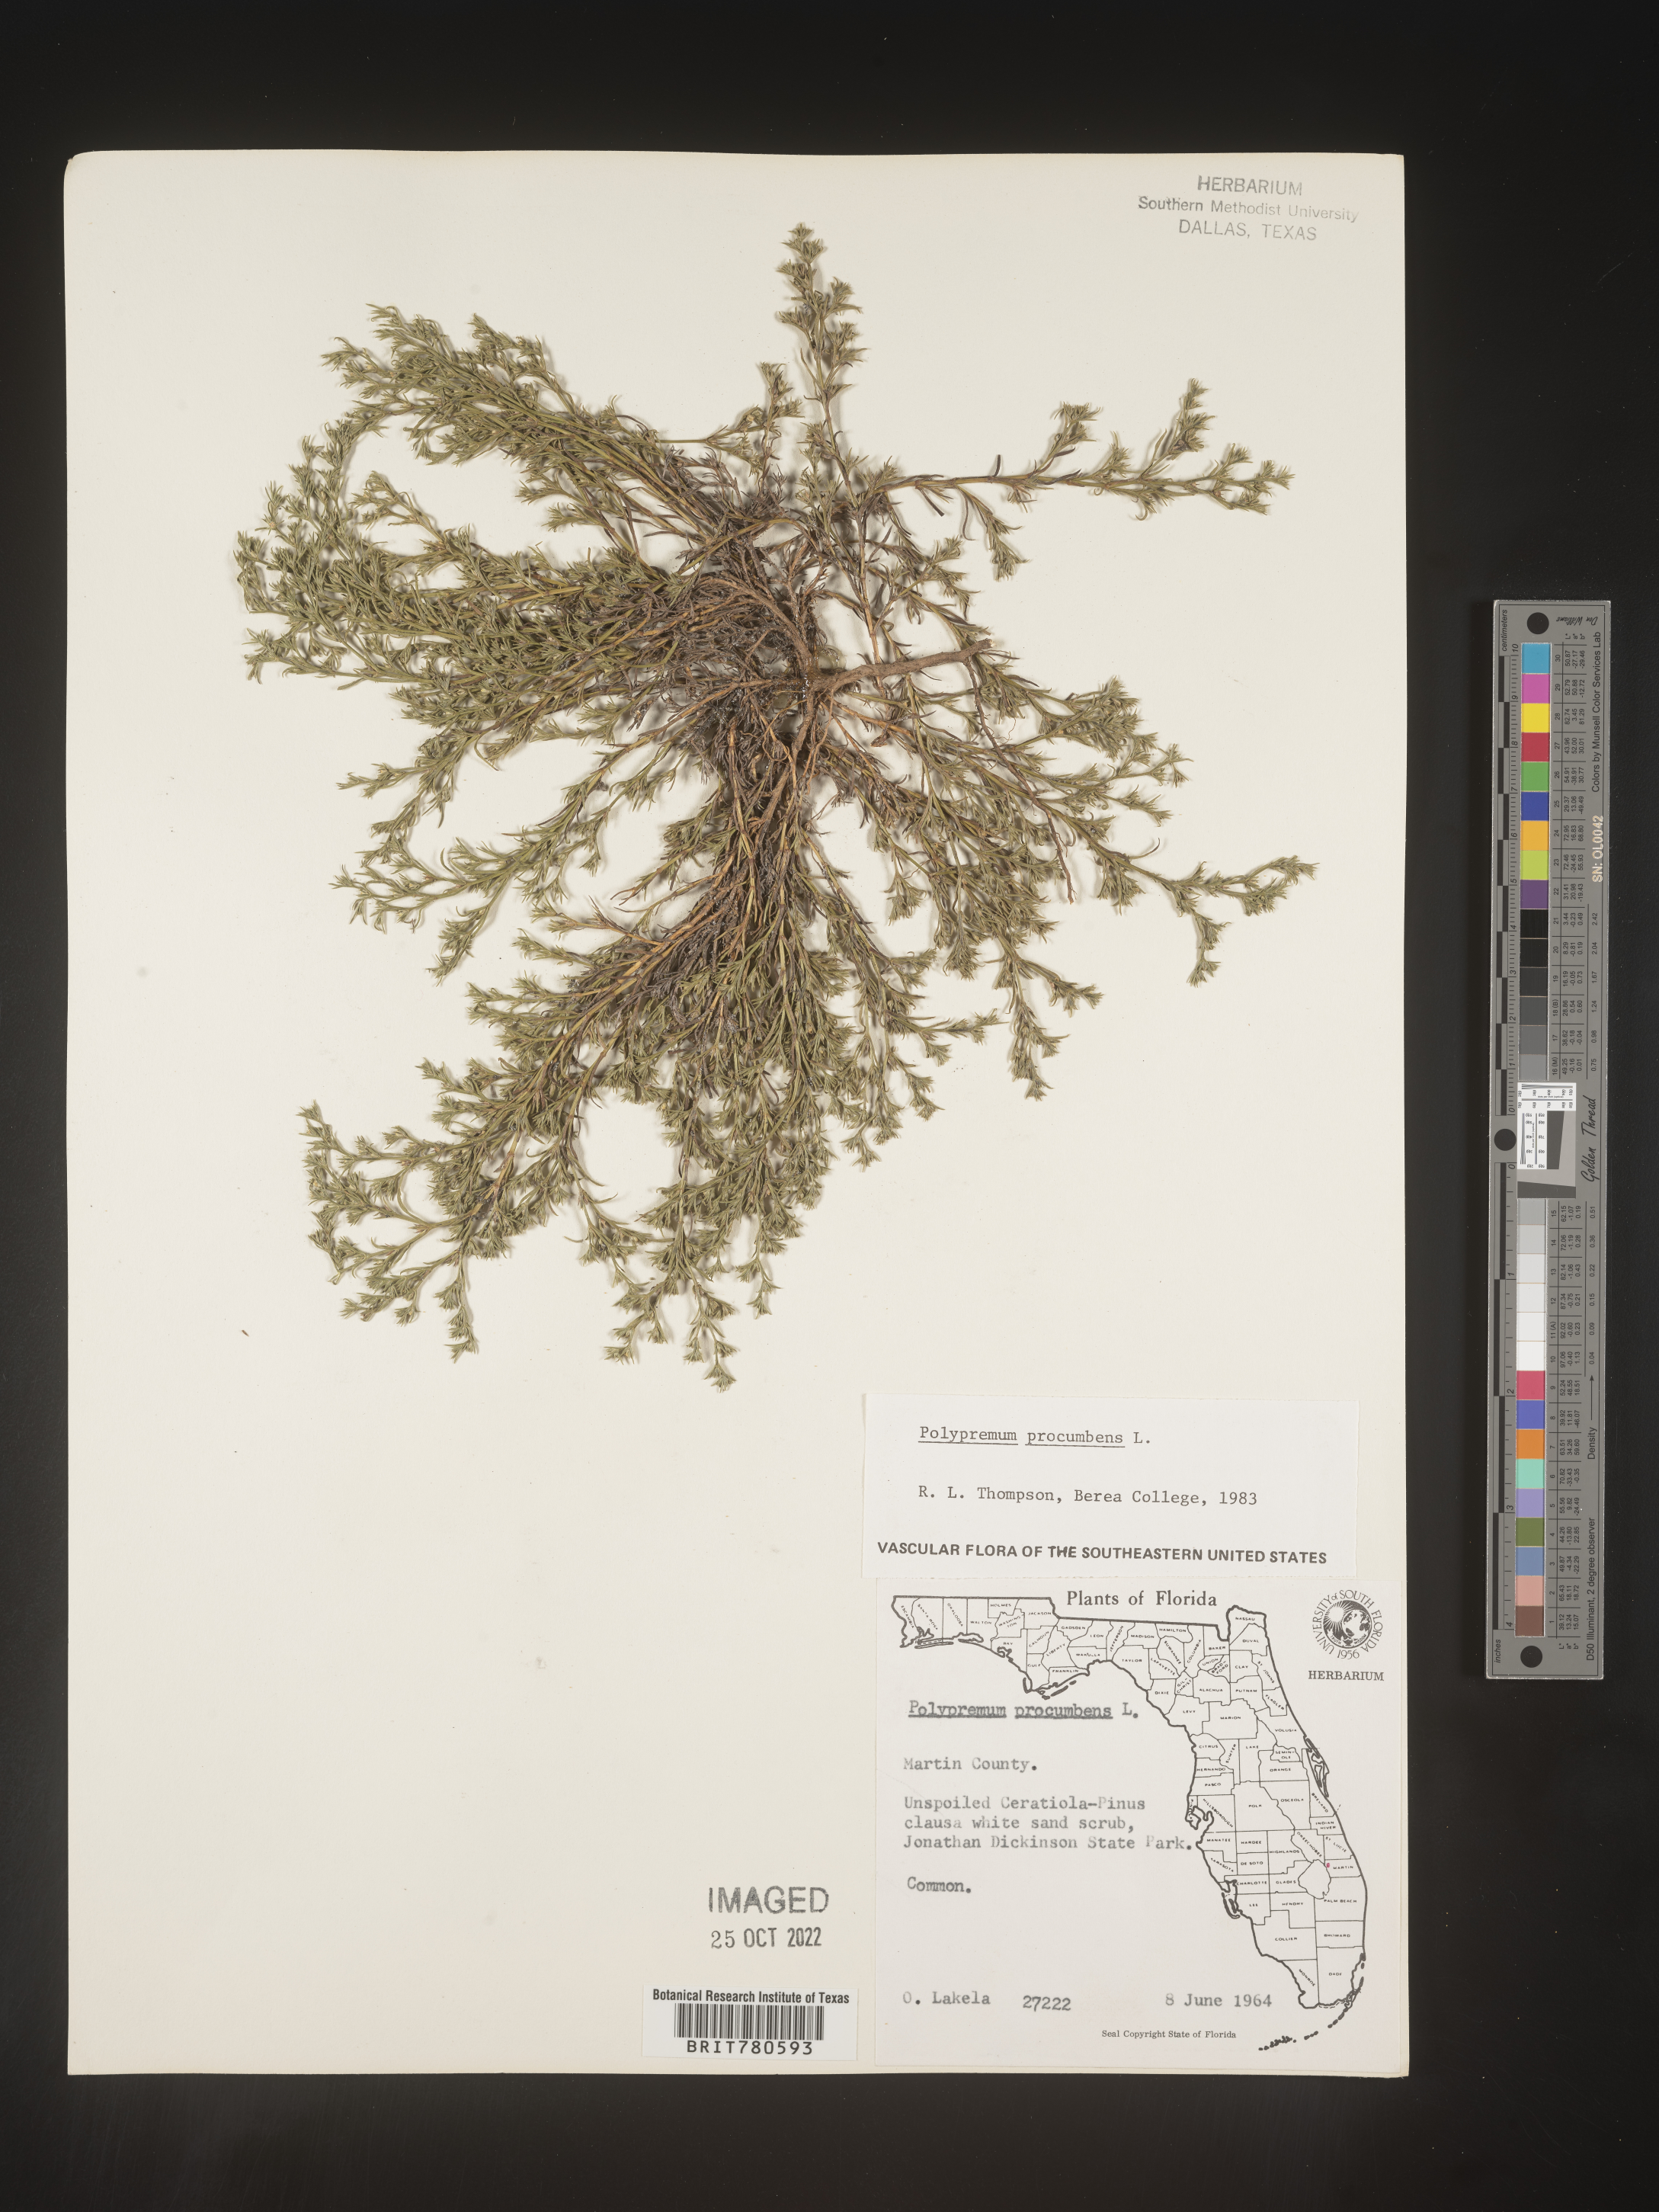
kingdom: Plantae
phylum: Tracheophyta
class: Magnoliopsida
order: Lamiales
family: Tetrachondraceae
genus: Polypremum
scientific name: Polypremum procumbens
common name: Juniper-leaf
